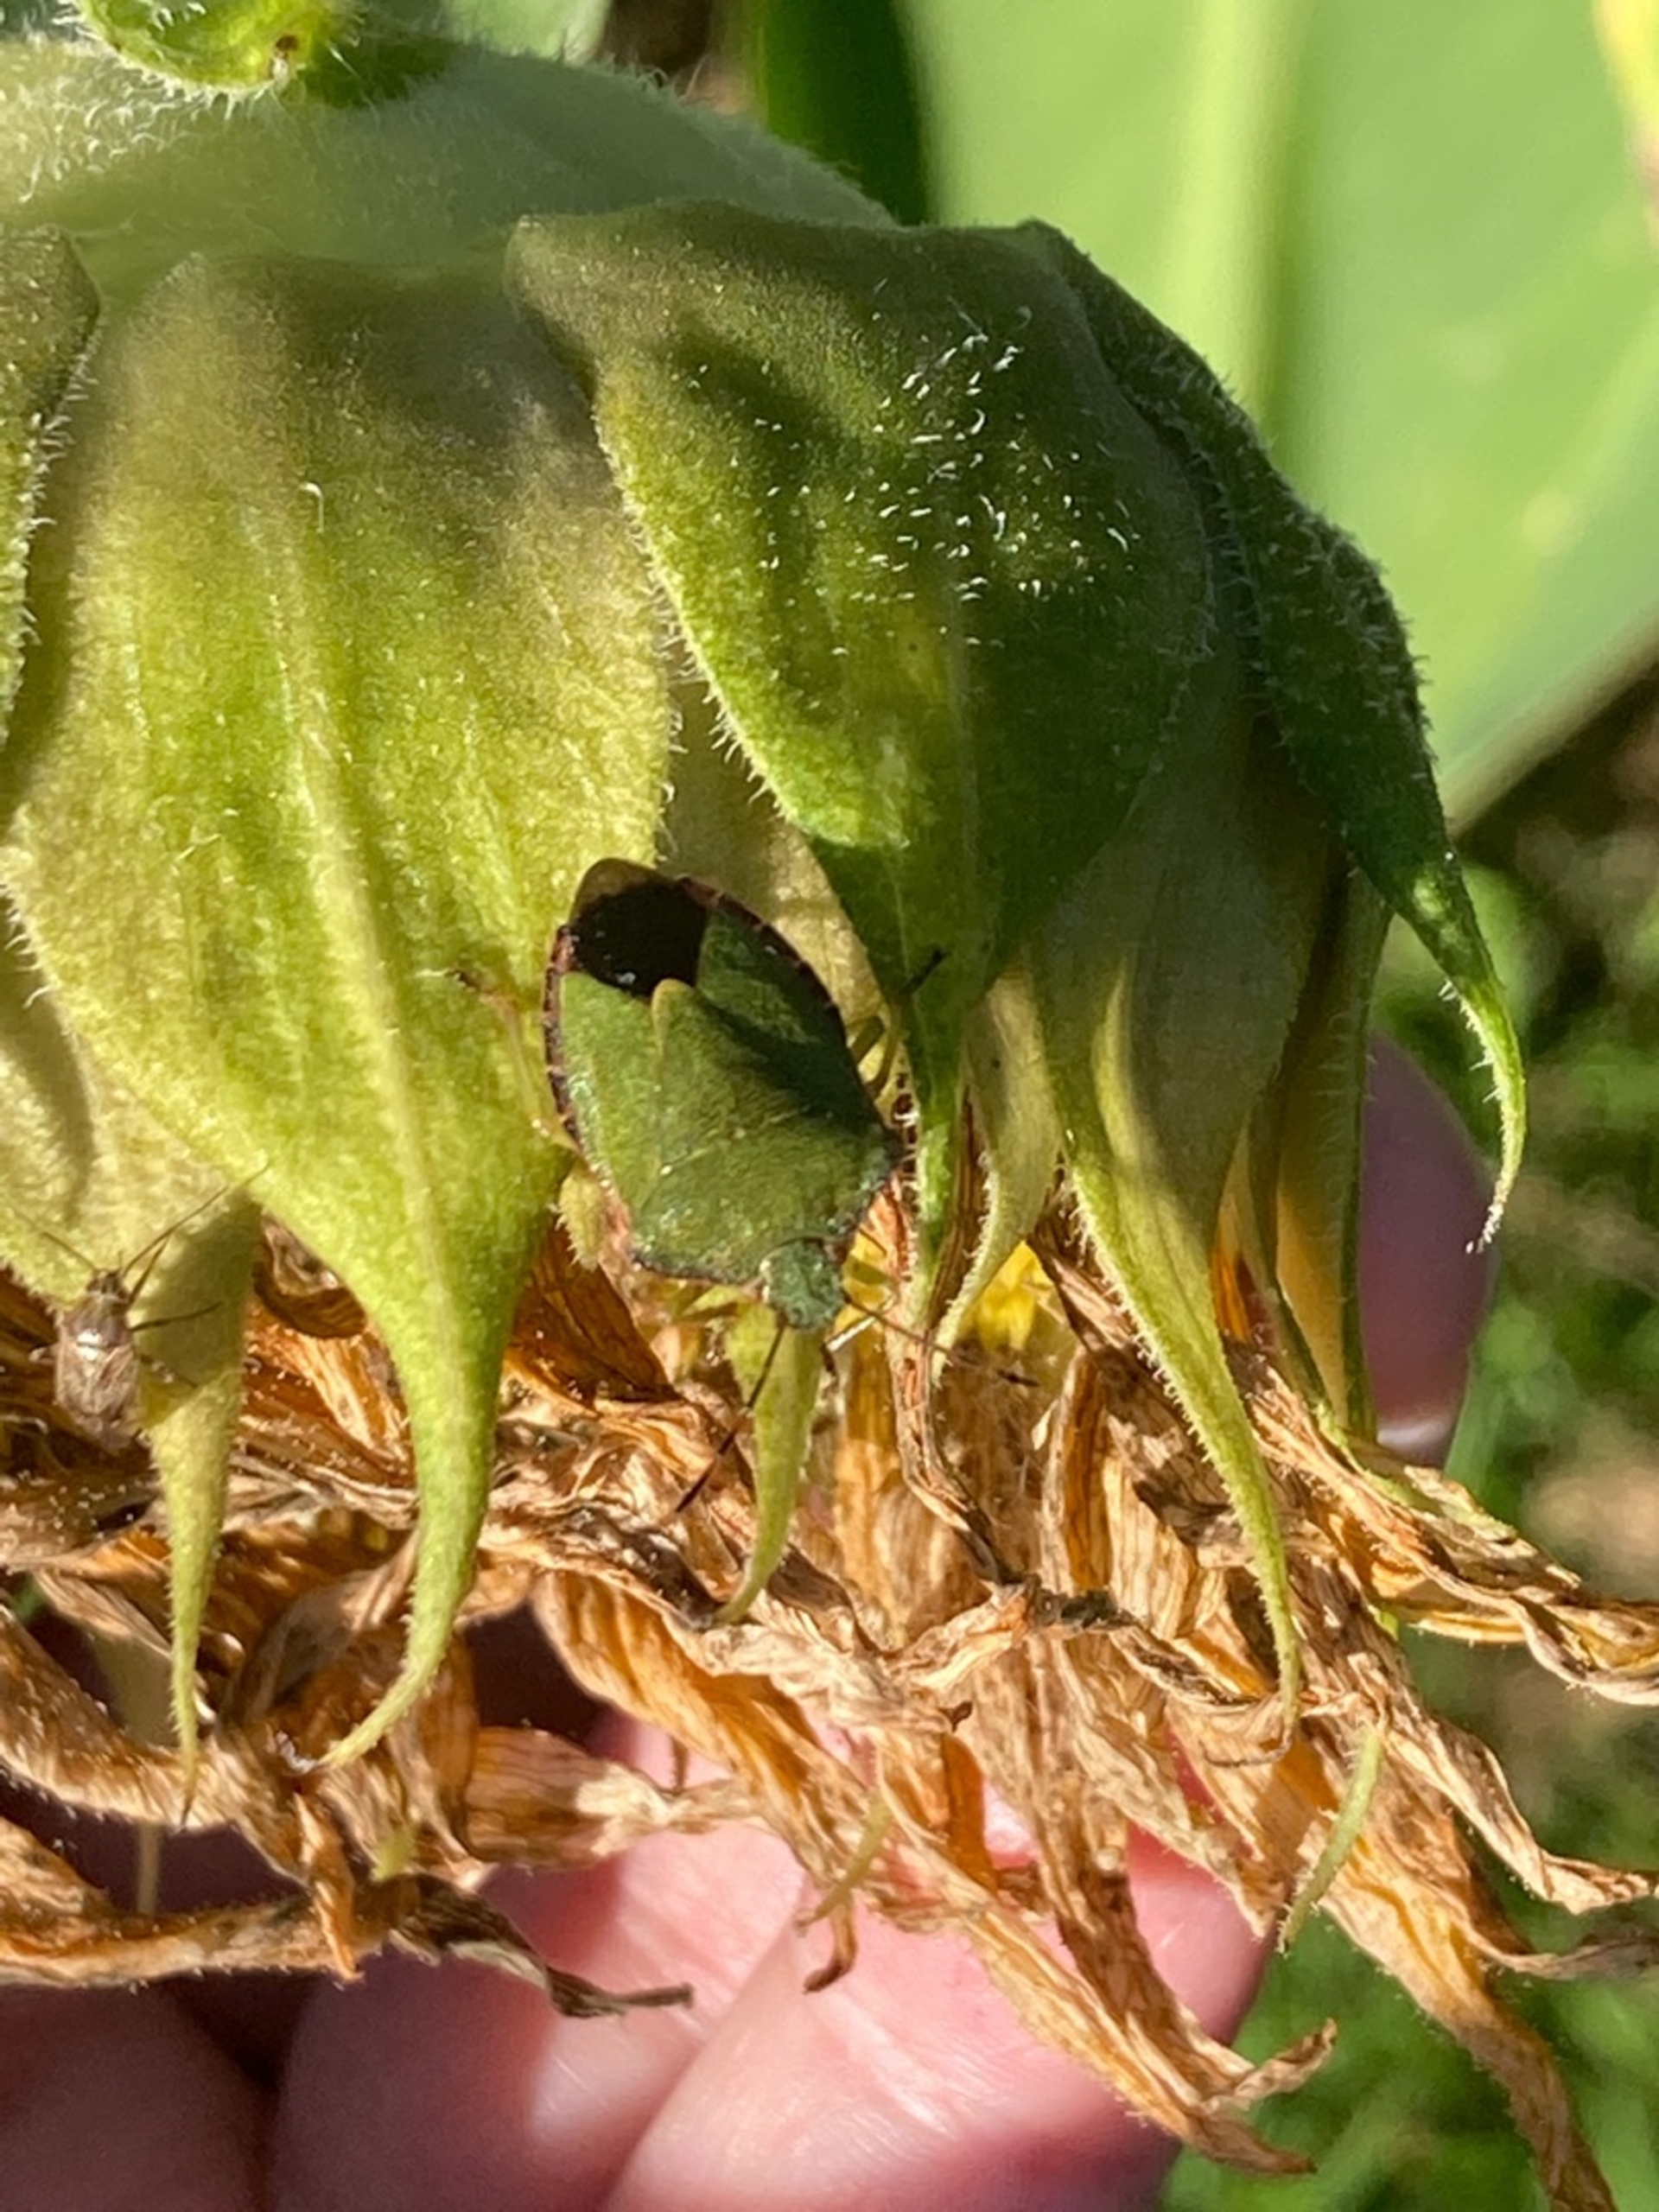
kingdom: Animalia
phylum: Arthropoda
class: Insecta
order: Hemiptera
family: Pentatomidae
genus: Palomena
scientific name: Palomena prasina
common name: Grøn bredtæge
